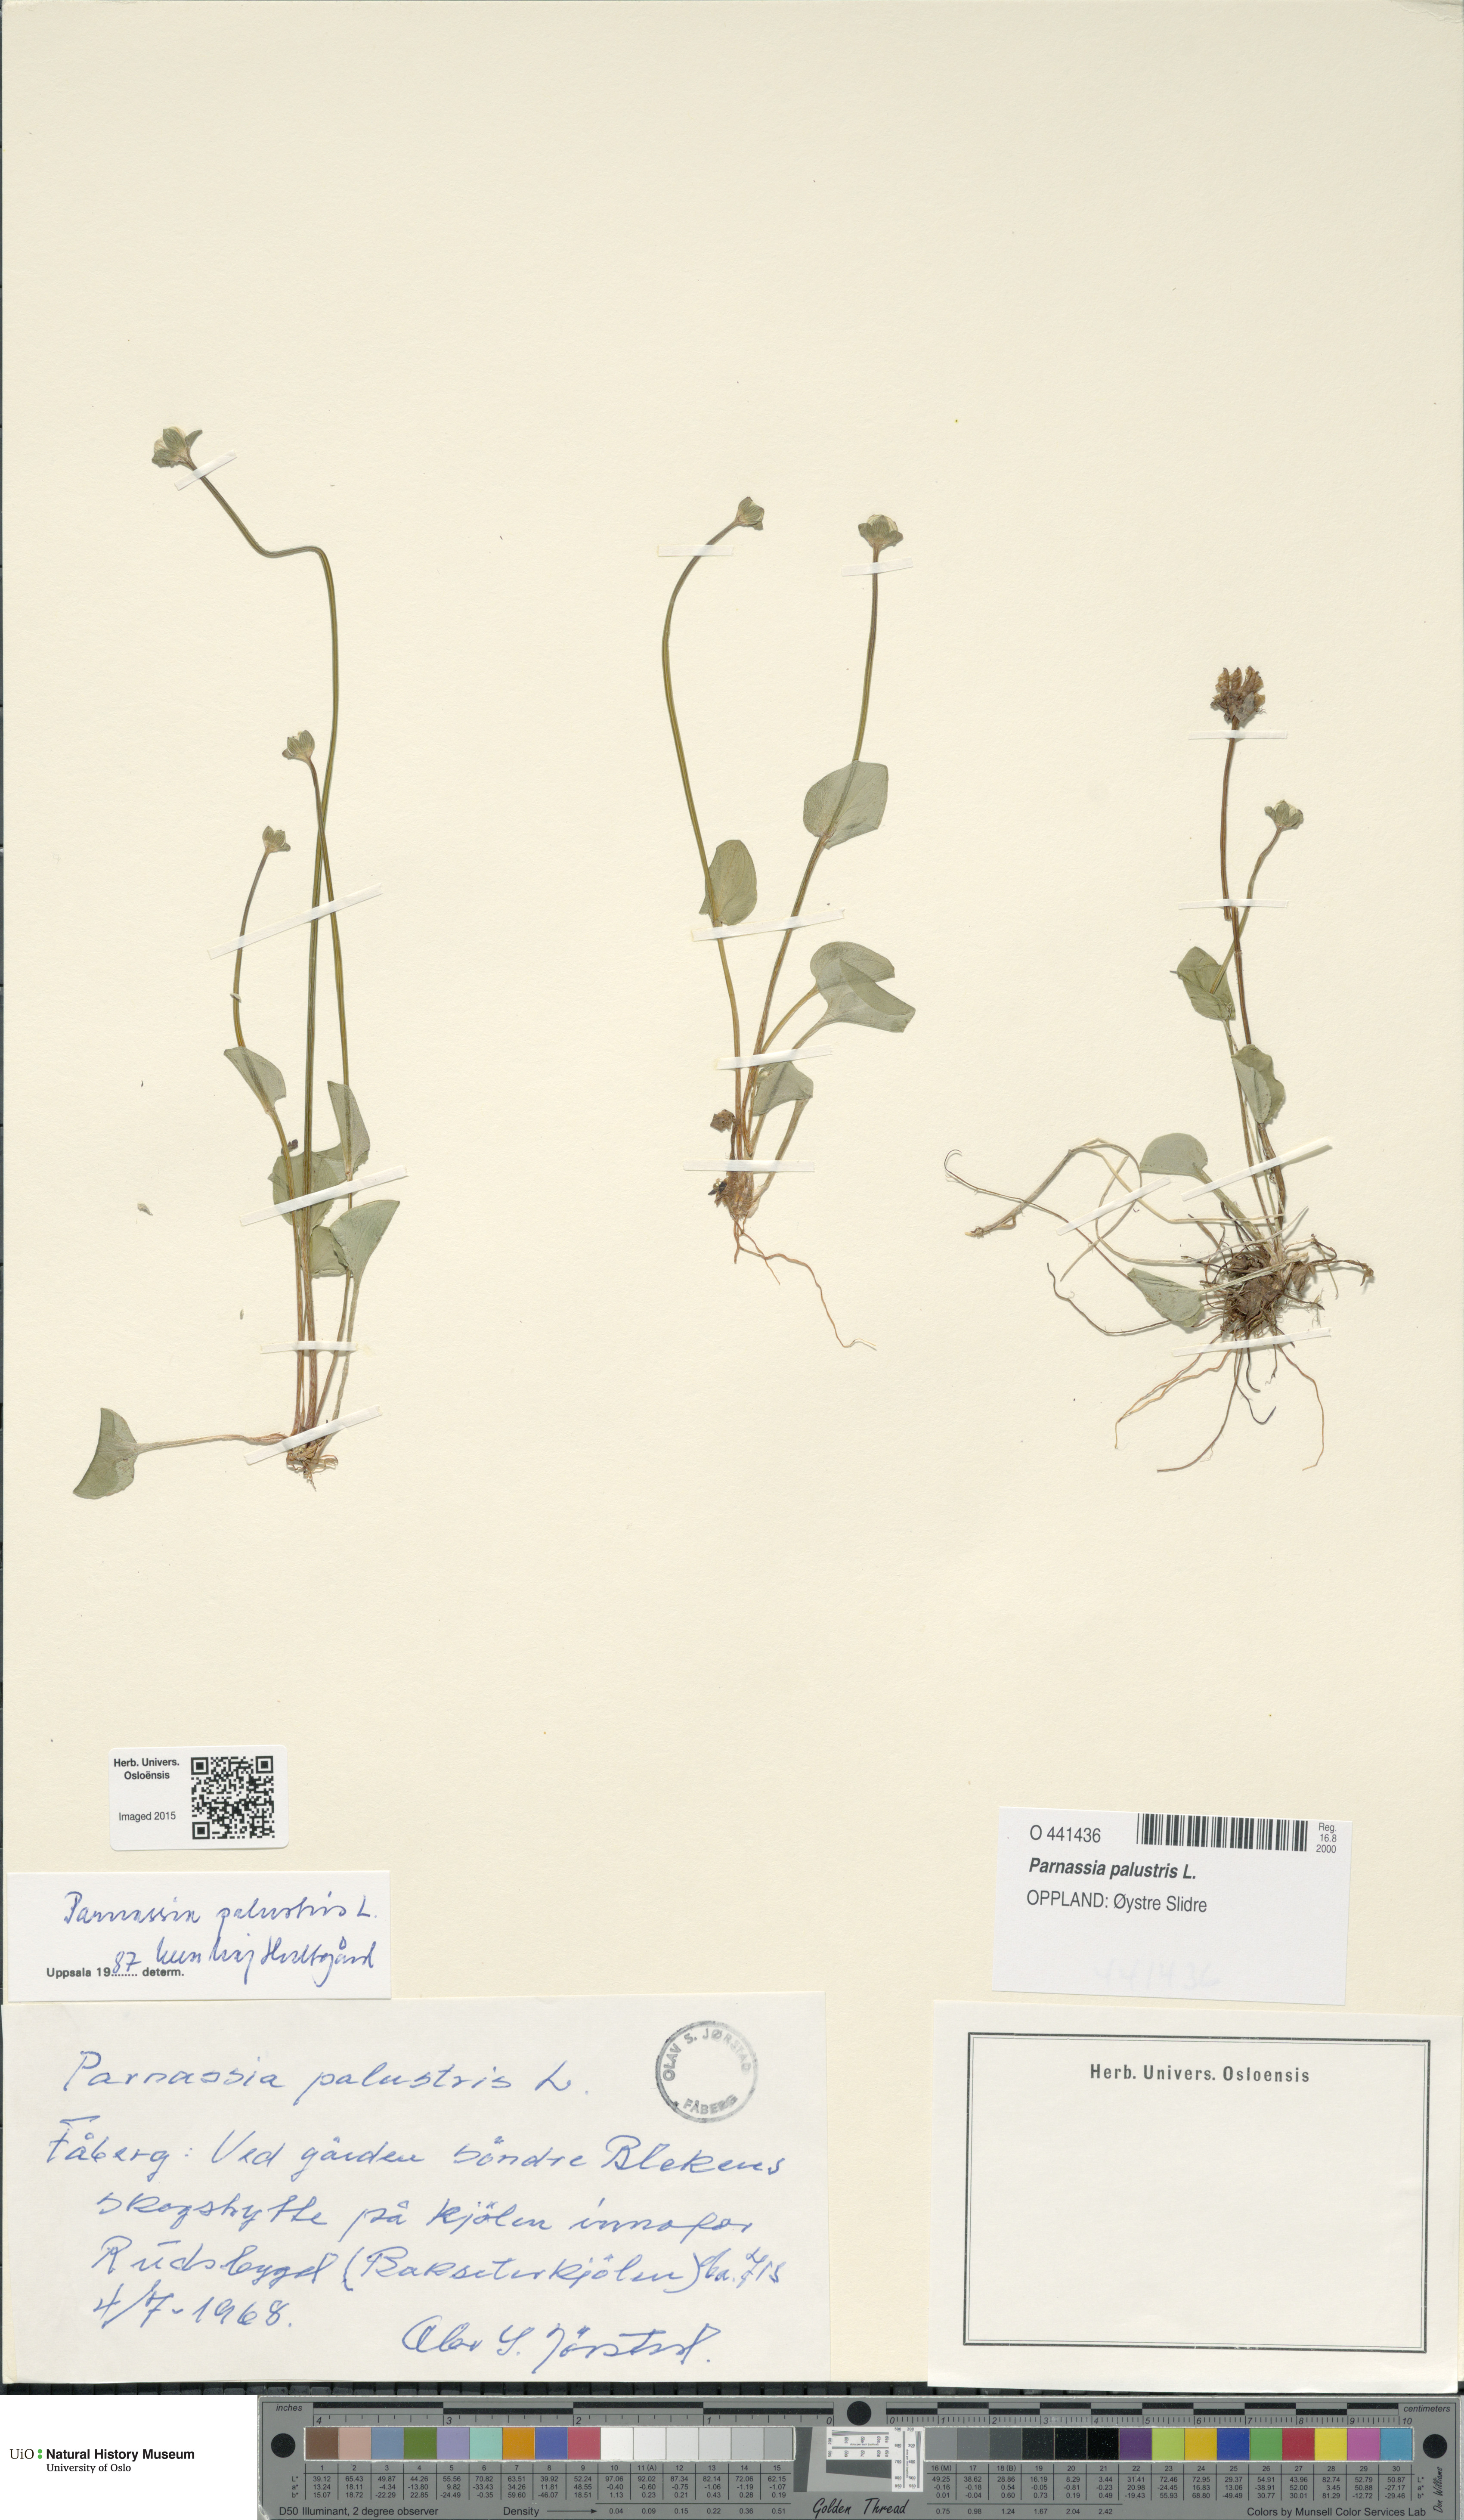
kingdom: Plantae
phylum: Tracheophyta
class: Magnoliopsida
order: Celastrales
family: Parnassiaceae
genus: Parnassia
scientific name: Parnassia palustris
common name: Grass-of-parnassus
